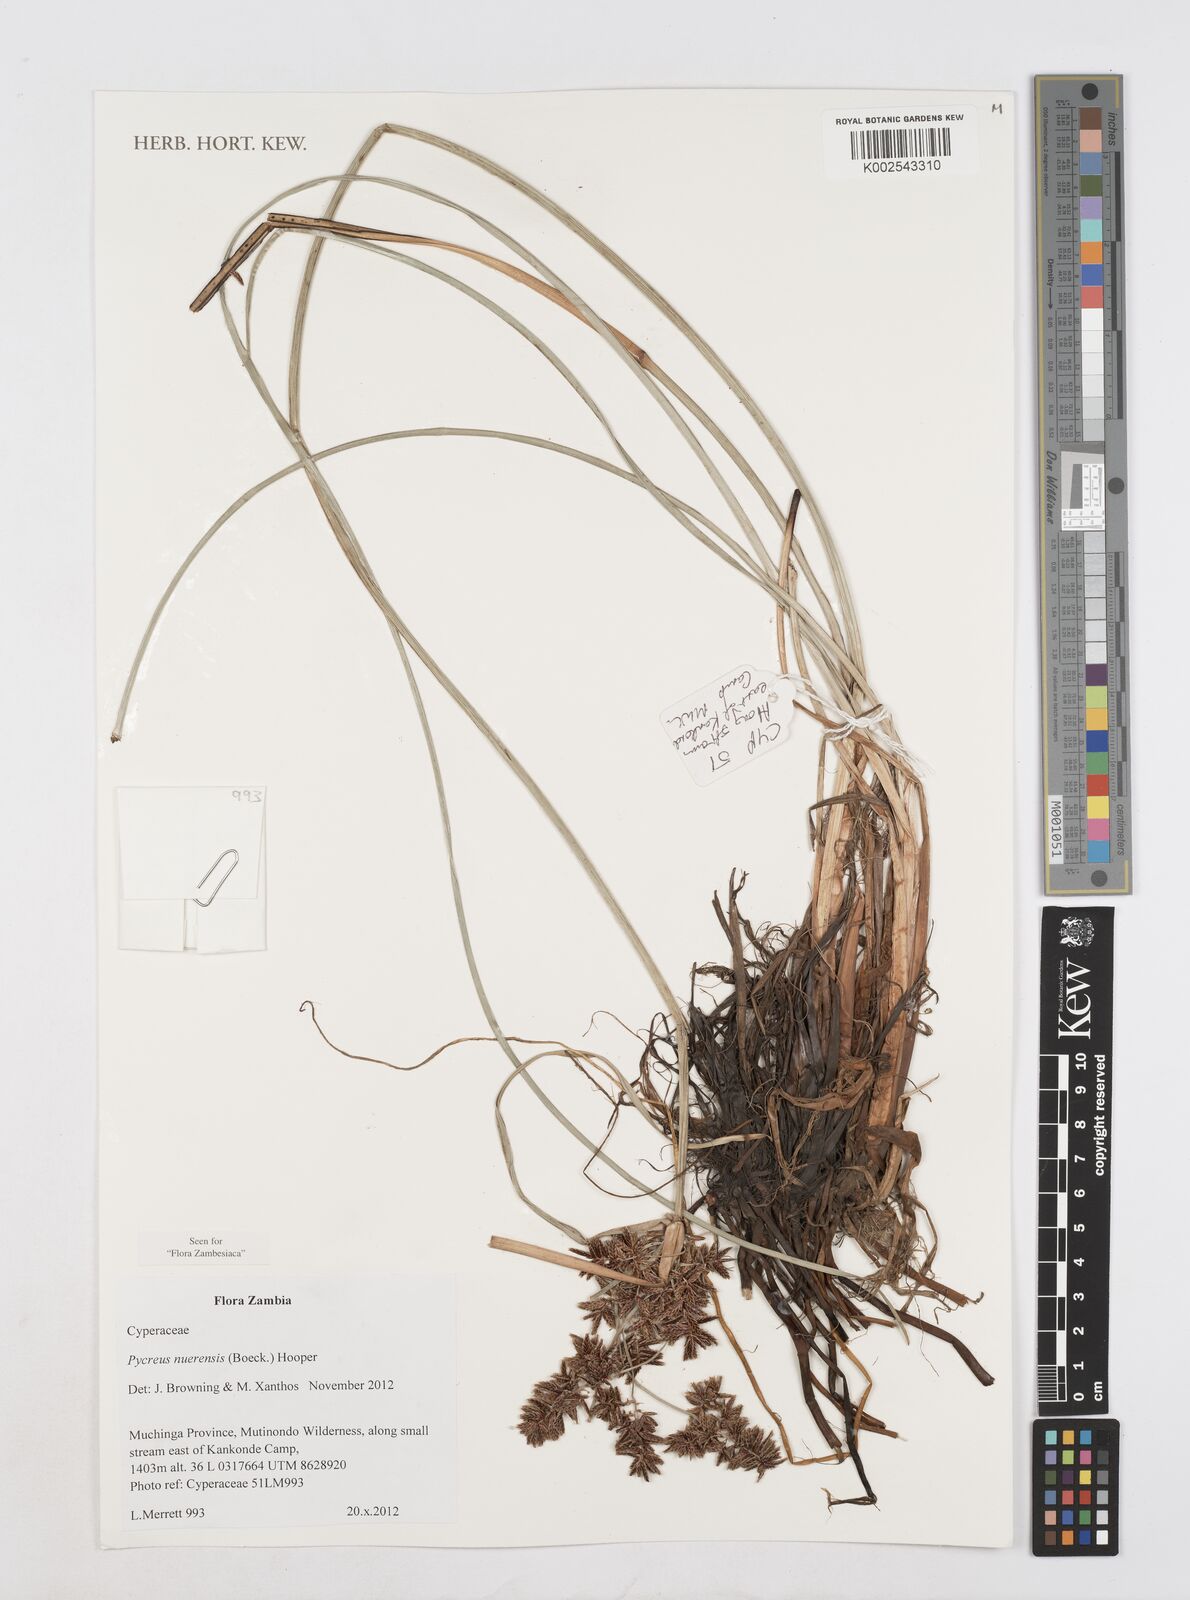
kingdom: Plantae
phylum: Tracheophyta
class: Liliopsida
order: Poales
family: Cyperaceae
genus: Cyperus
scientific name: Cyperus nuerensis
